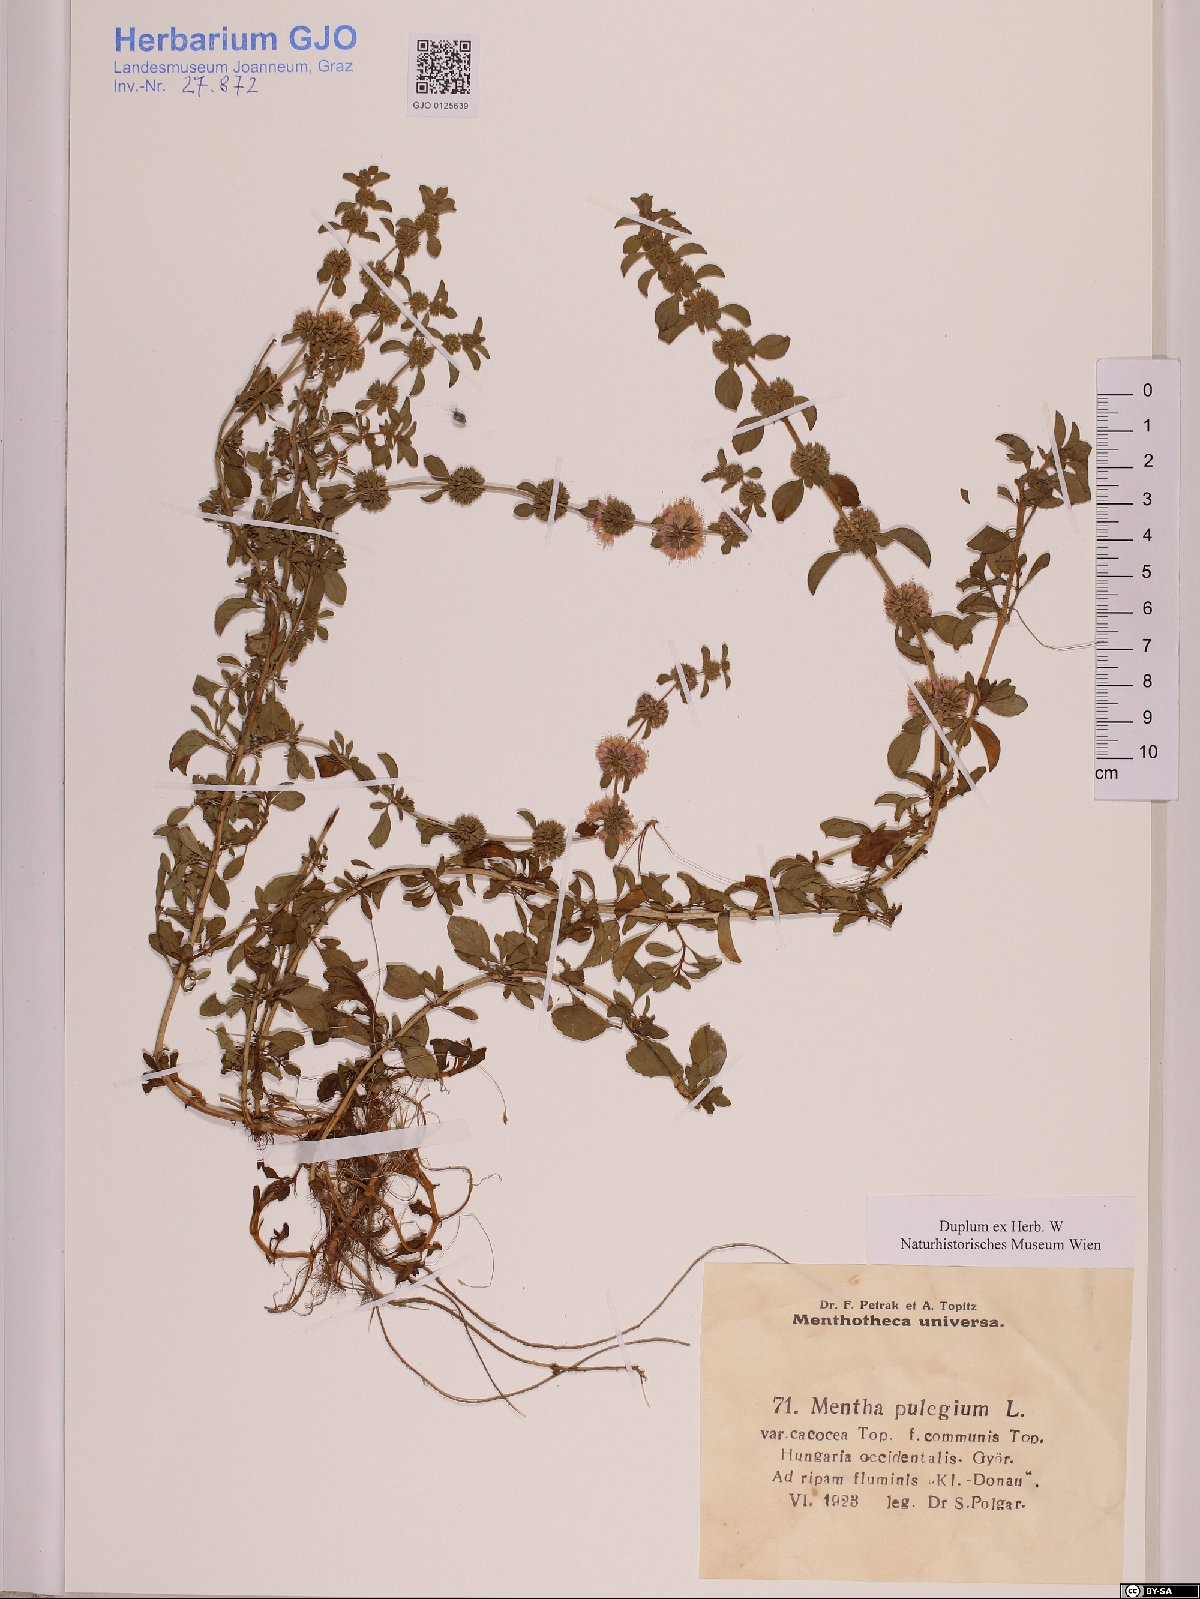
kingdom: Plantae
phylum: Tracheophyta
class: Magnoliopsida
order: Lamiales
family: Lamiaceae
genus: Mentha
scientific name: Mentha pulegium
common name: Pennyroyal
